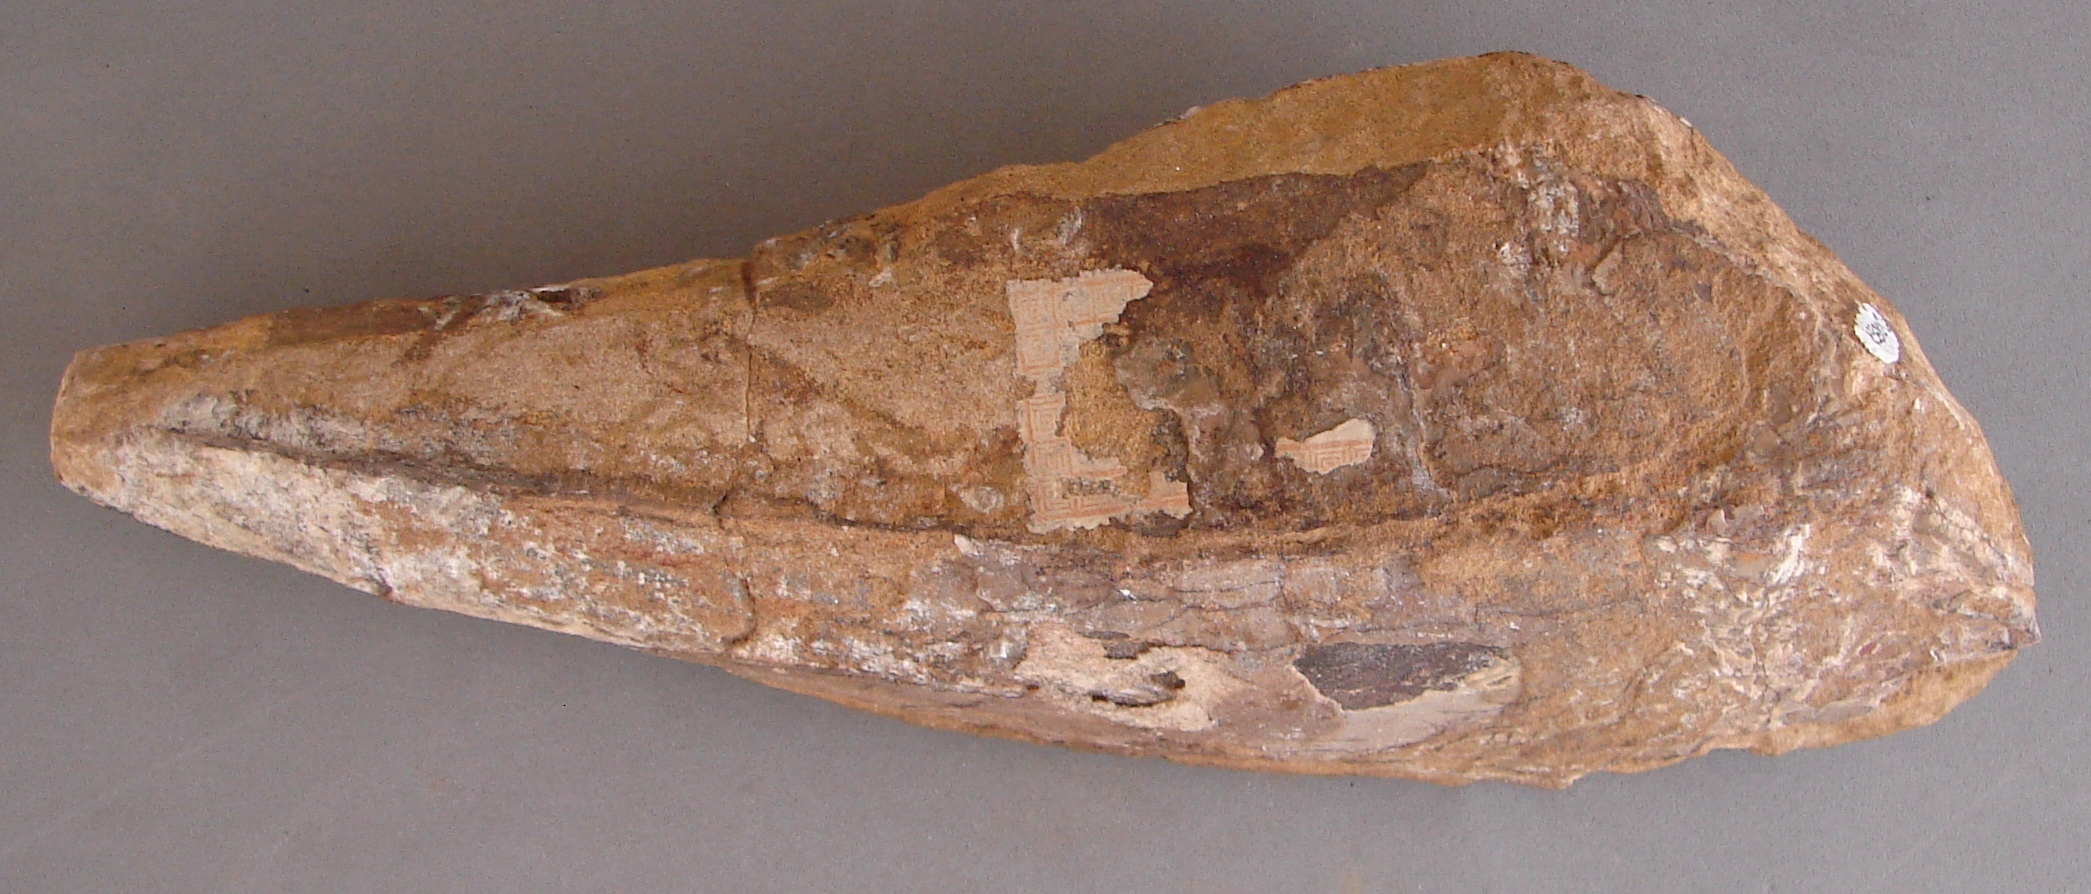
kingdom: Animalia
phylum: Mollusca
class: Bivalvia
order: Ostreida
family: Pinnidae
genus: Pinna
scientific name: Pinna opalina
